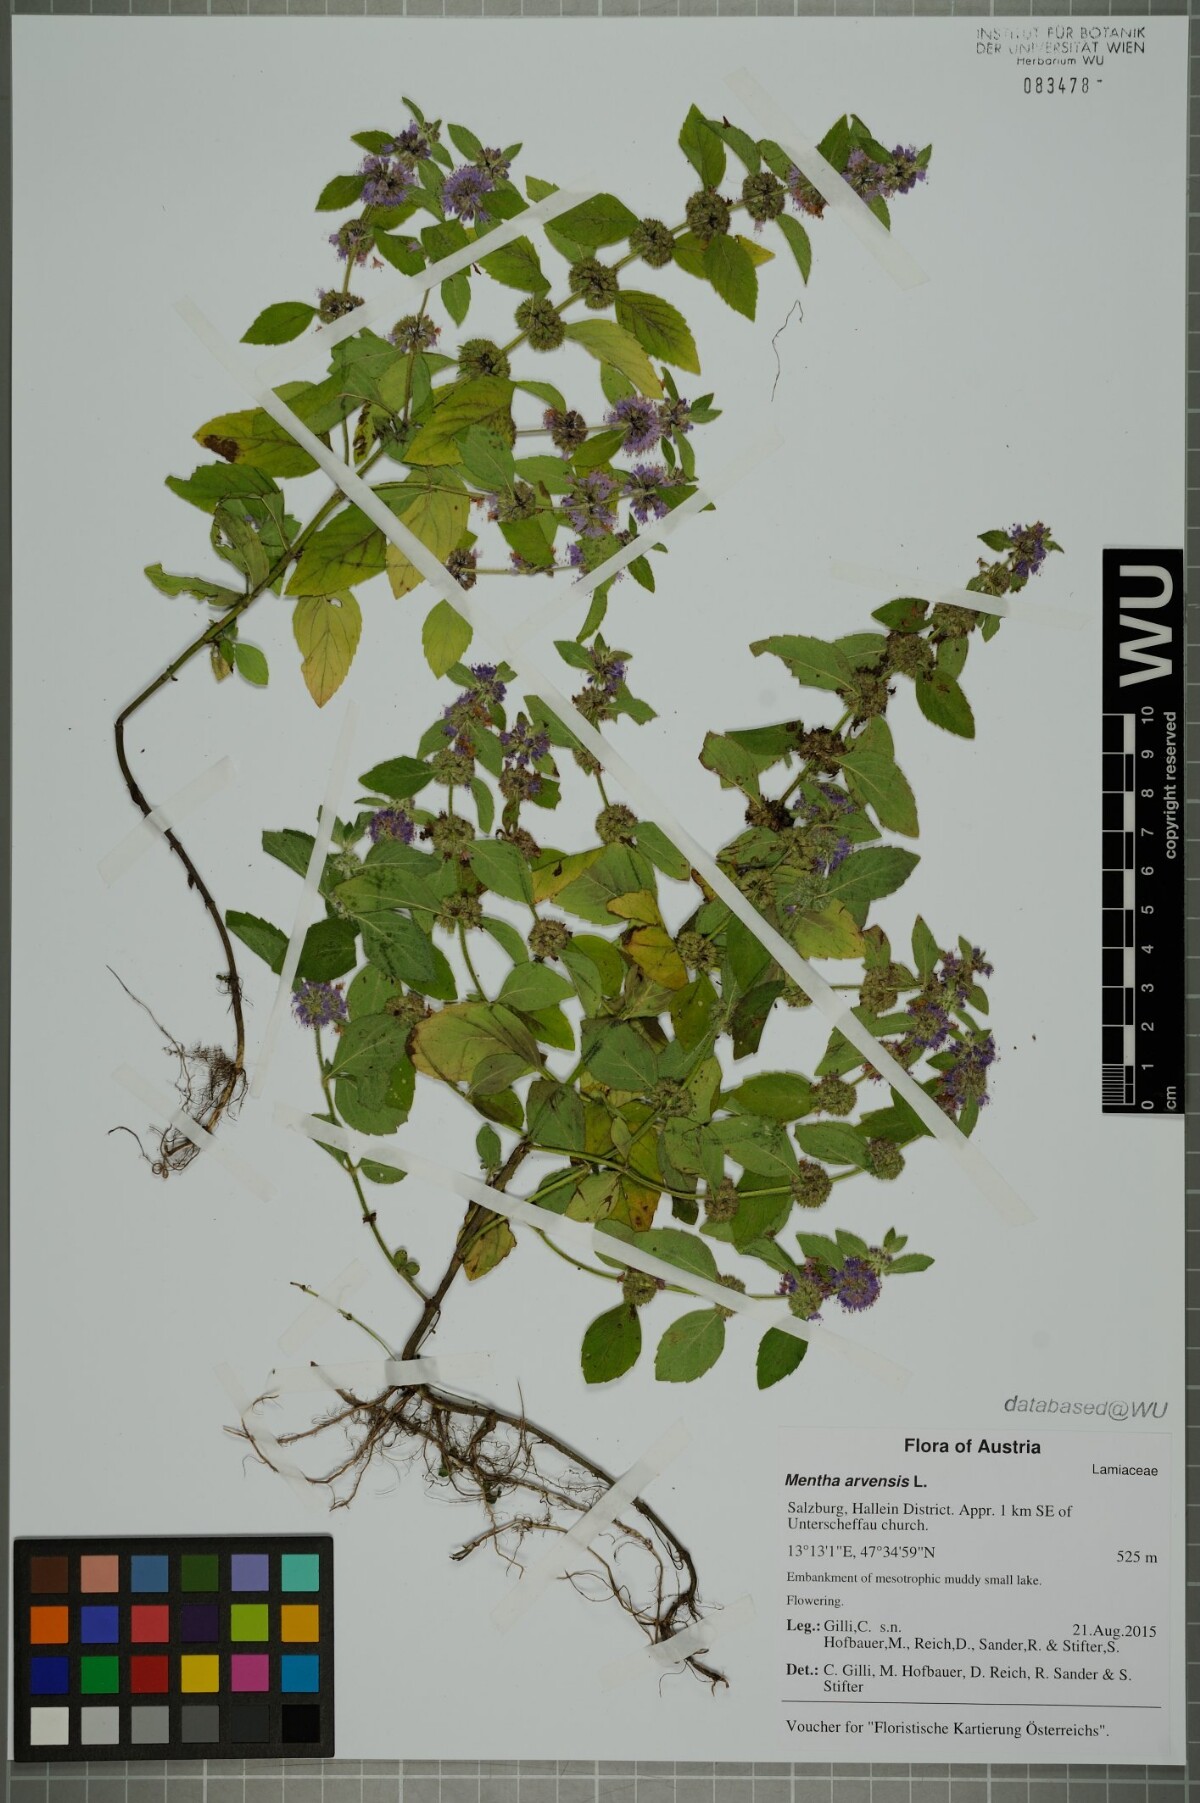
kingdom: Plantae
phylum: Tracheophyta
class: Magnoliopsida
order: Lamiales
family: Lamiaceae
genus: Mentha
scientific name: Mentha arvensis
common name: Corn mint
